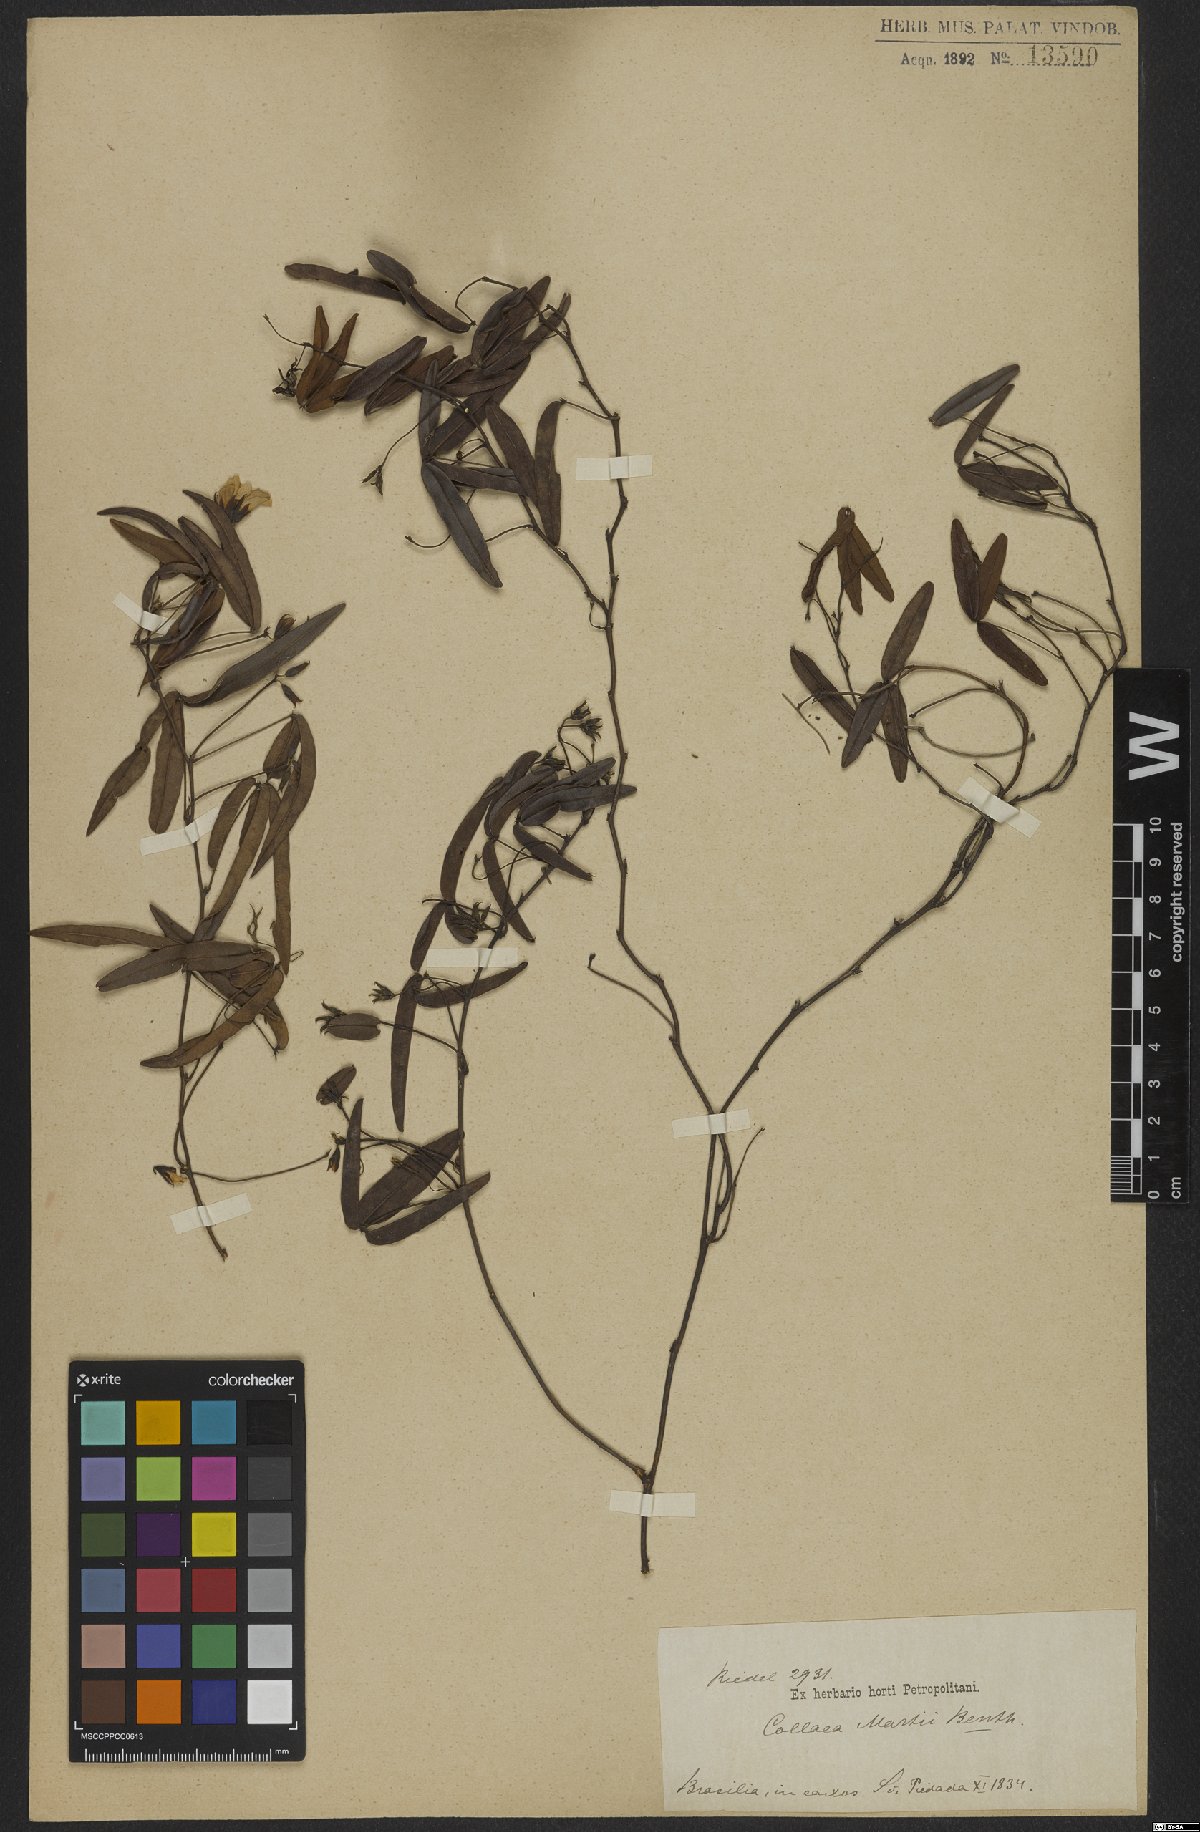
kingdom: Plantae
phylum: Tracheophyta
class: Magnoliopsida
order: Fabales
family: Fabaceae
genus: Betencourtia
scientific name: Betencourtia martii
